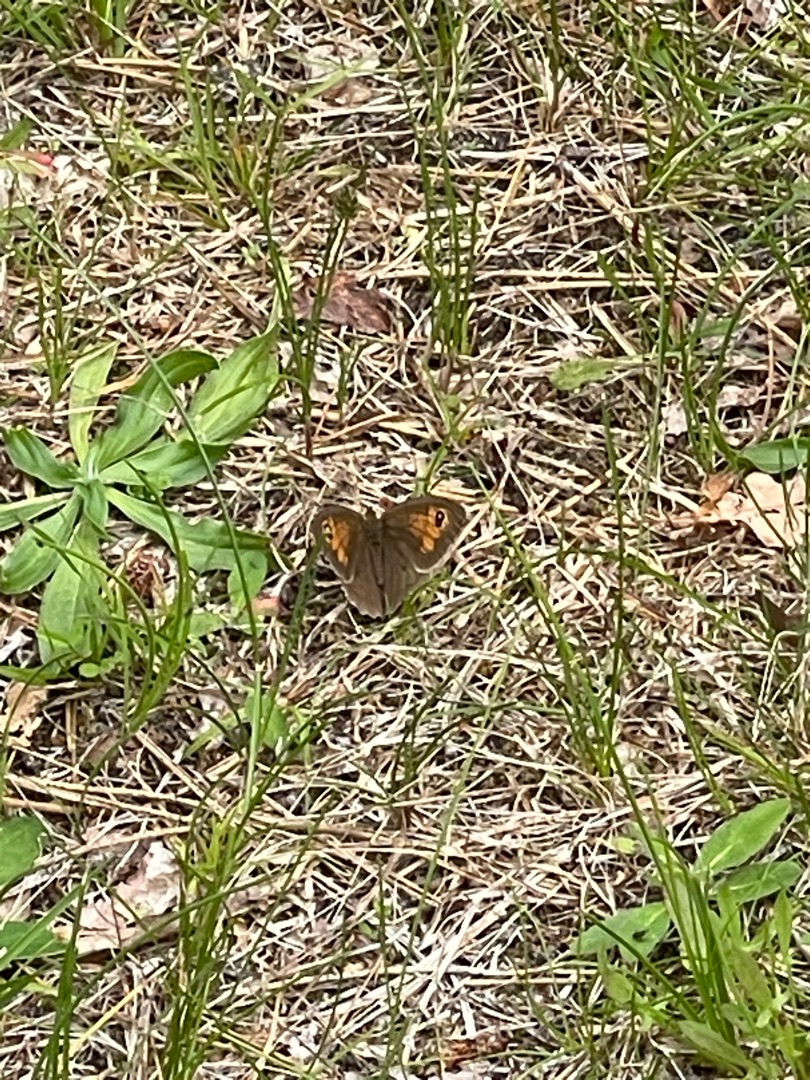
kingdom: Animalia
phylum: Arthropoda
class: Insecta
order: Lepidoptera
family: Nymphalidae
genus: Maniola
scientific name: Maniola jurtina
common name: Græsrandøje
